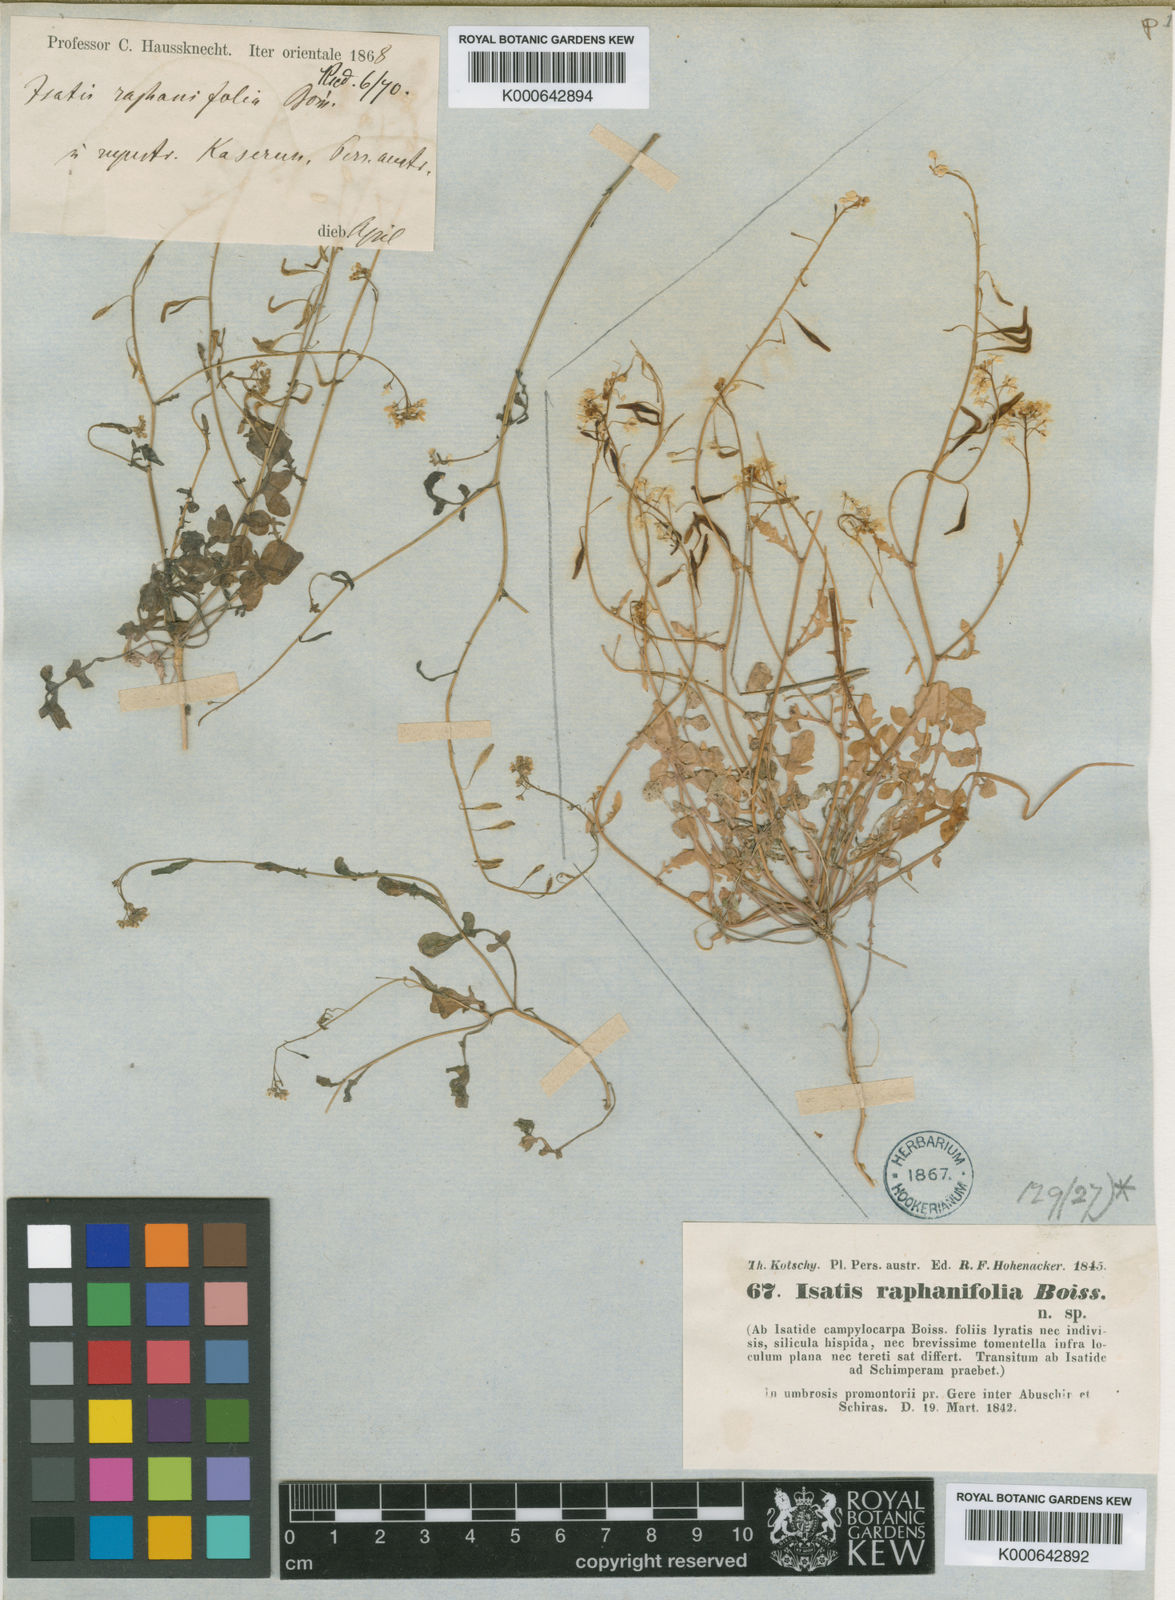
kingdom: Plantae
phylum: Tracheophyta
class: Magnoliopsida
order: Brassicales
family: Brassicaceae
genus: Isatis
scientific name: Isatis raphanifolia
